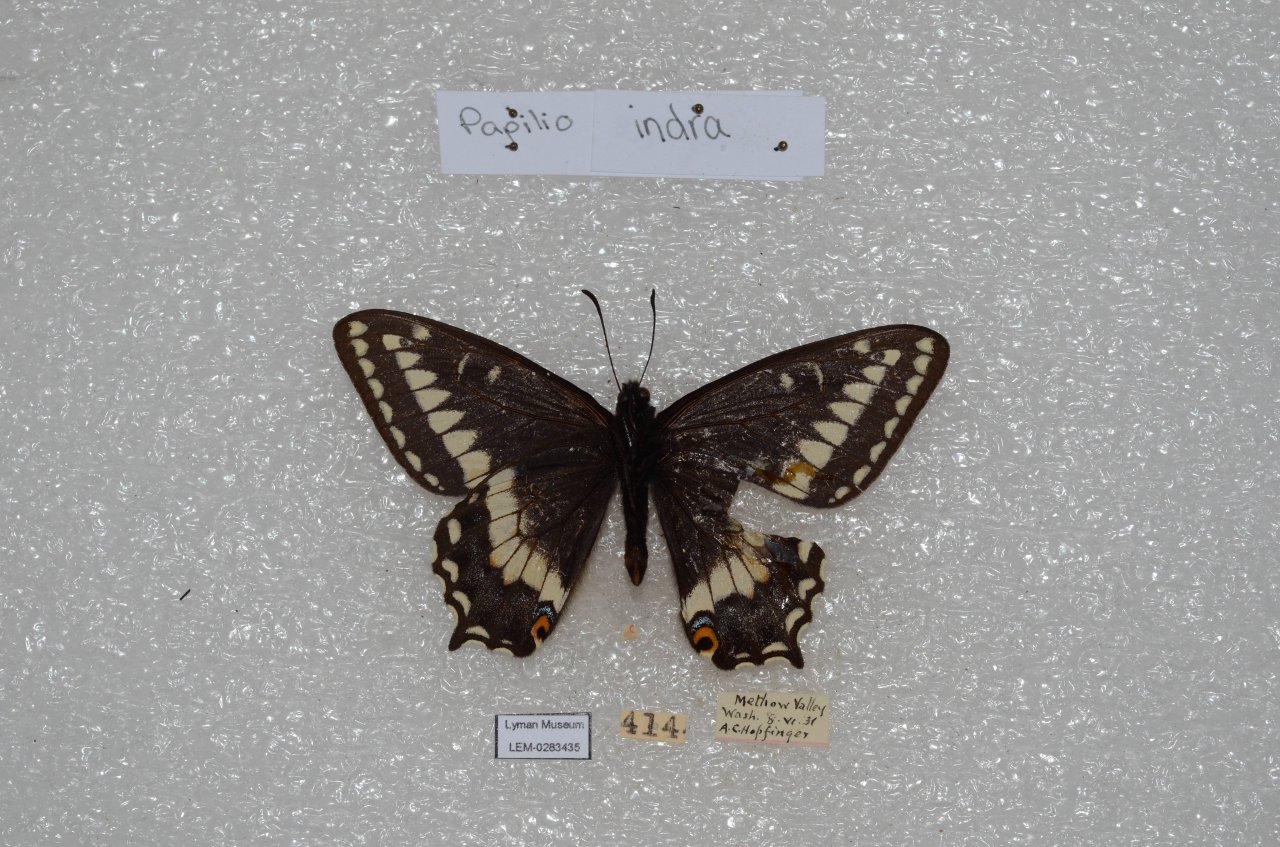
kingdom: Animalia
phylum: Arthropoda
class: Insecta
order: Lepidoptera
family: Papilionidae
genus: Papilio
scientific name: Papilio indra
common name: Indra Swallowtail
